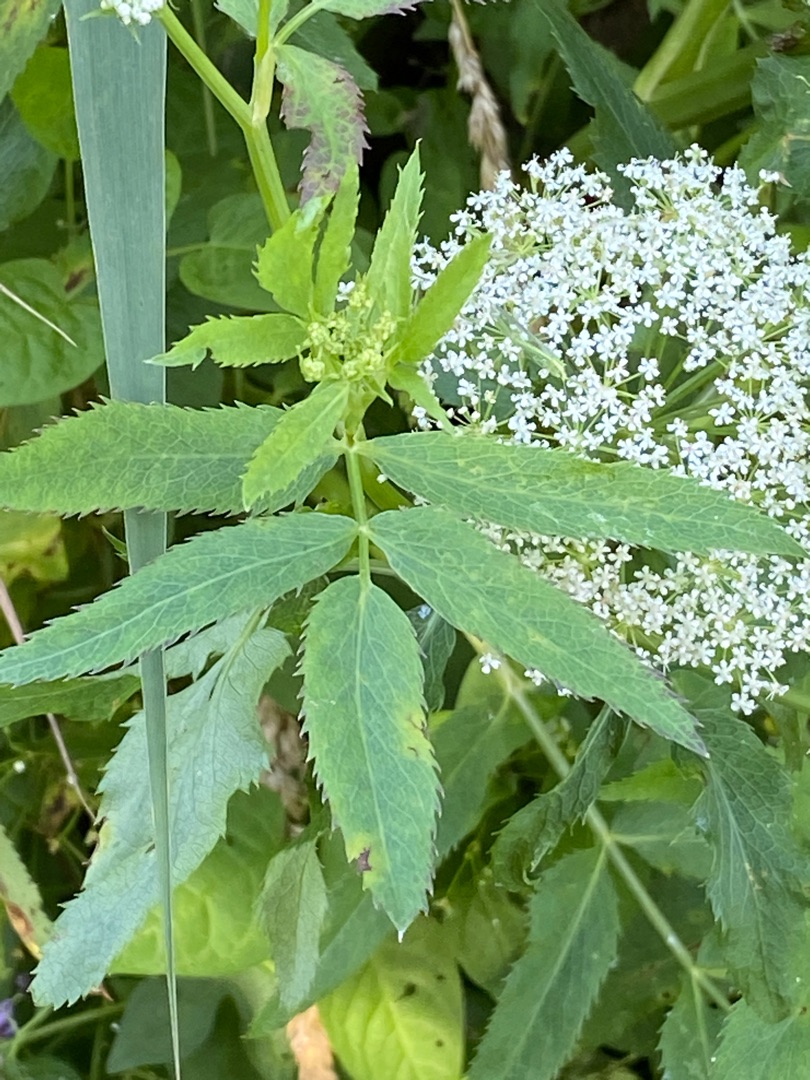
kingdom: Plantae
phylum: Tracheophyta
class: Magnoliopsida
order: Apiales
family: Apiaceae
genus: Sium
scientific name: Sium latifolium
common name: Bredbladet mærke
